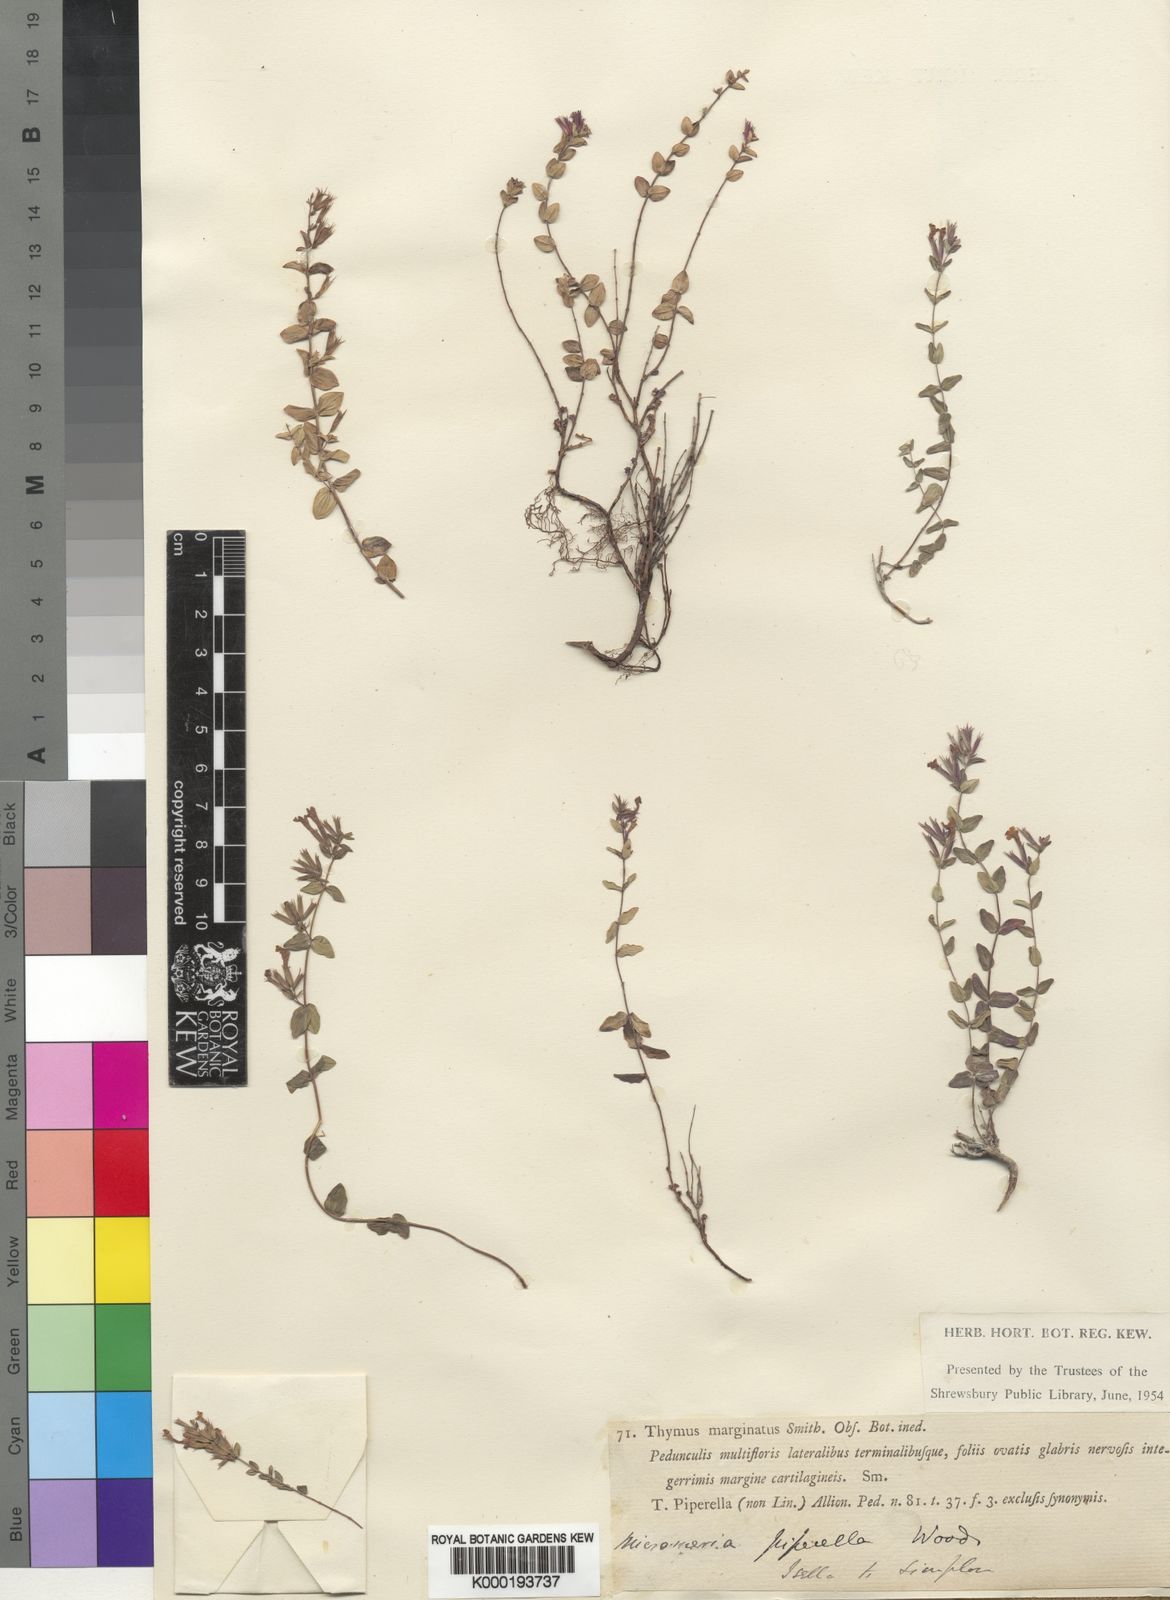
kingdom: Plantae
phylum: Tracheophyta
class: Magnoliopsida
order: Lamiales
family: Lamiaceae
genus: Micromeria
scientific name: Micromeria marginata
